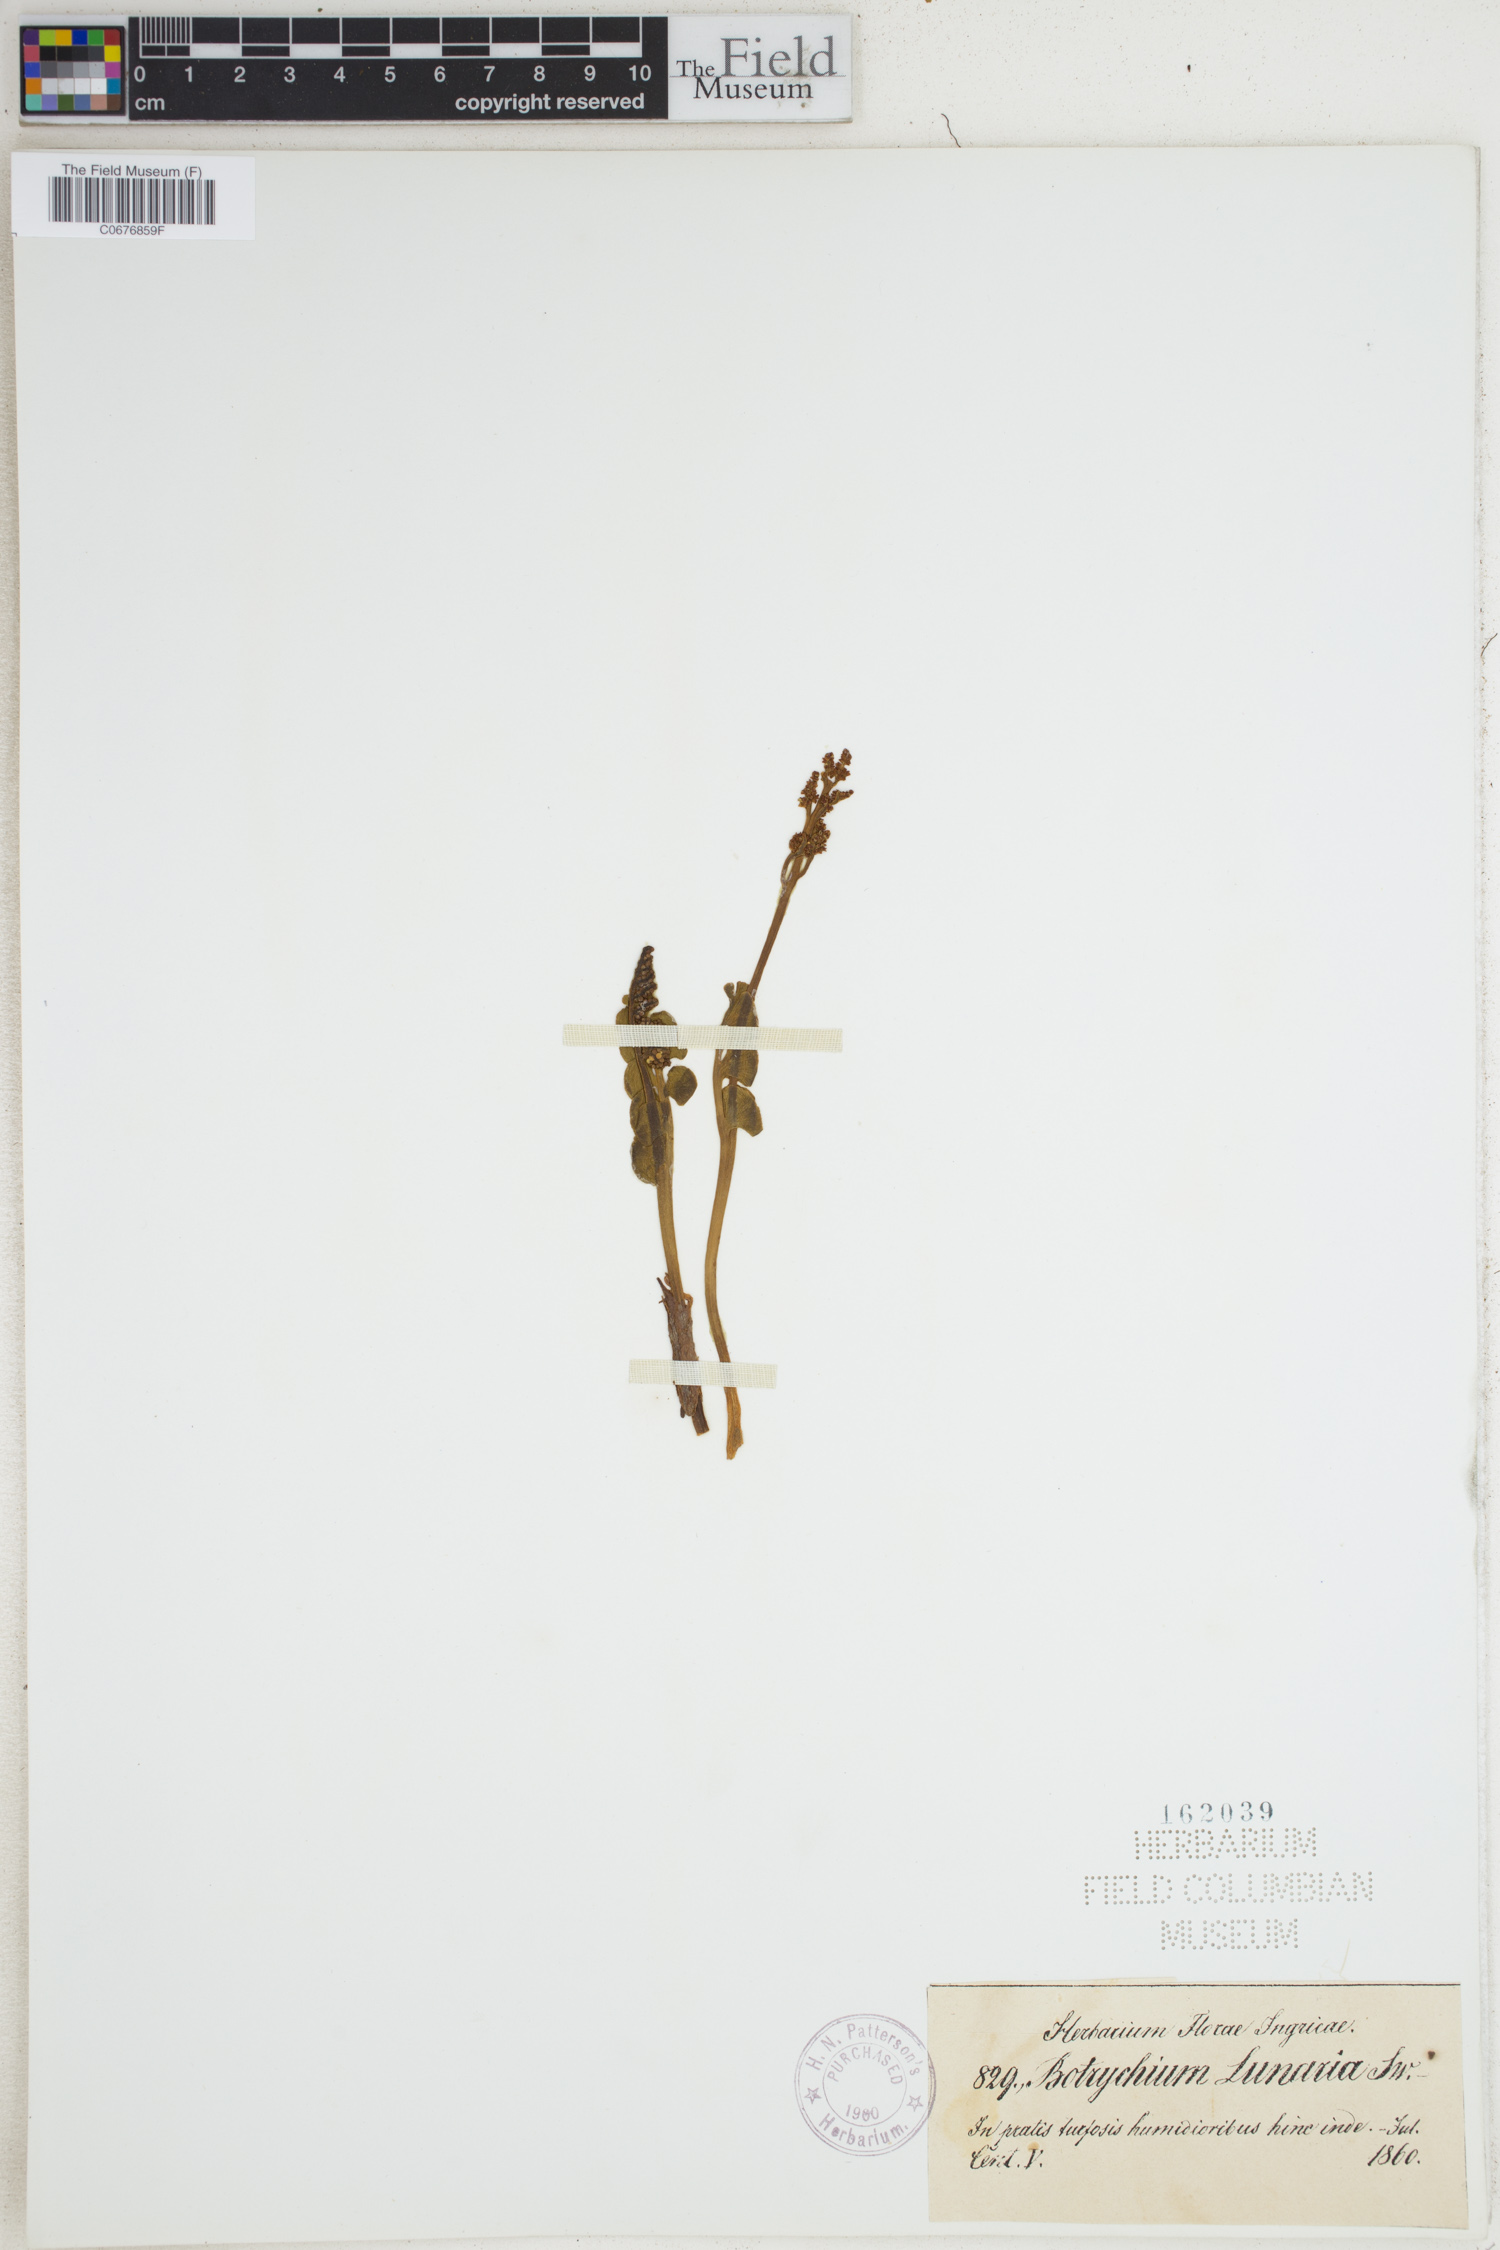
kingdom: Plantae
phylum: Tracheophyta
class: Polypodiopsida
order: Ophioglossales
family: Ophioglossaceae
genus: Botrychium
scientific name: Botrychium lunaria
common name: Moonwort
